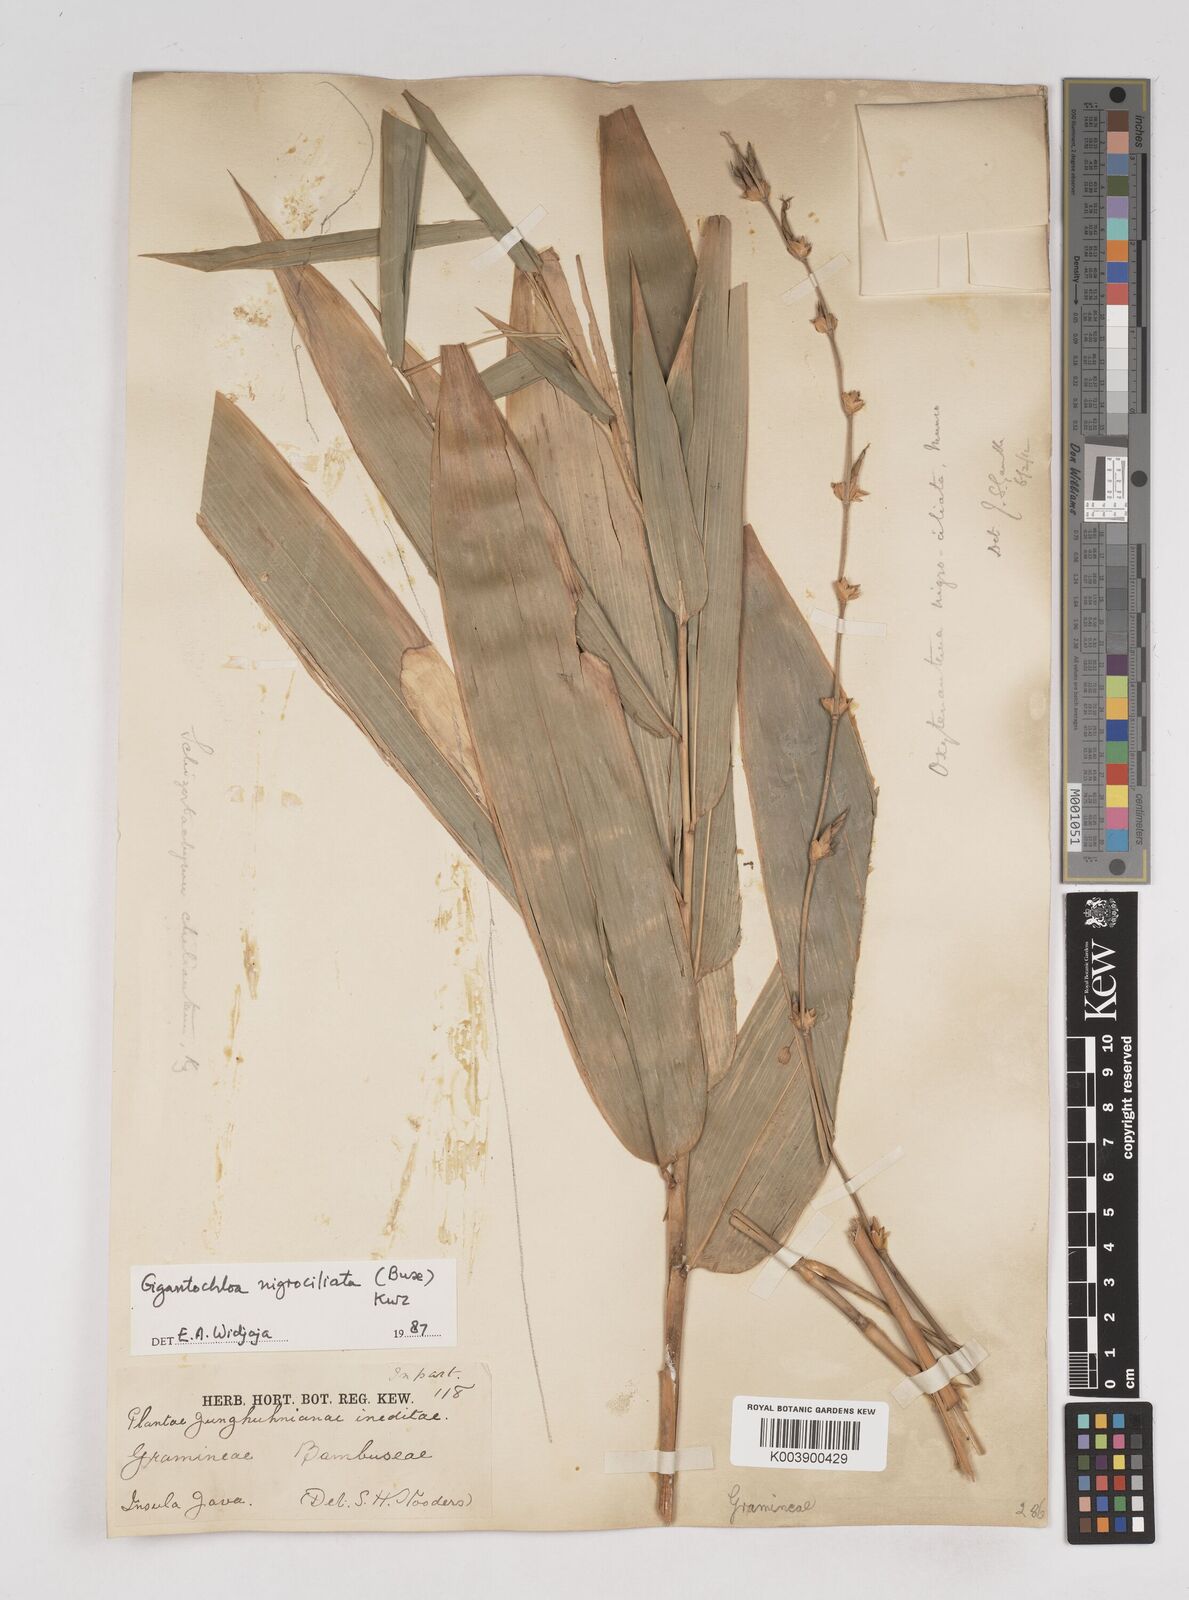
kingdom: Plantae
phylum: Tracheophyta
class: Liliopsida
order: Poales
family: Poaceae
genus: Gigantochloa
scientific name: Gigantochloa nigrociliata
